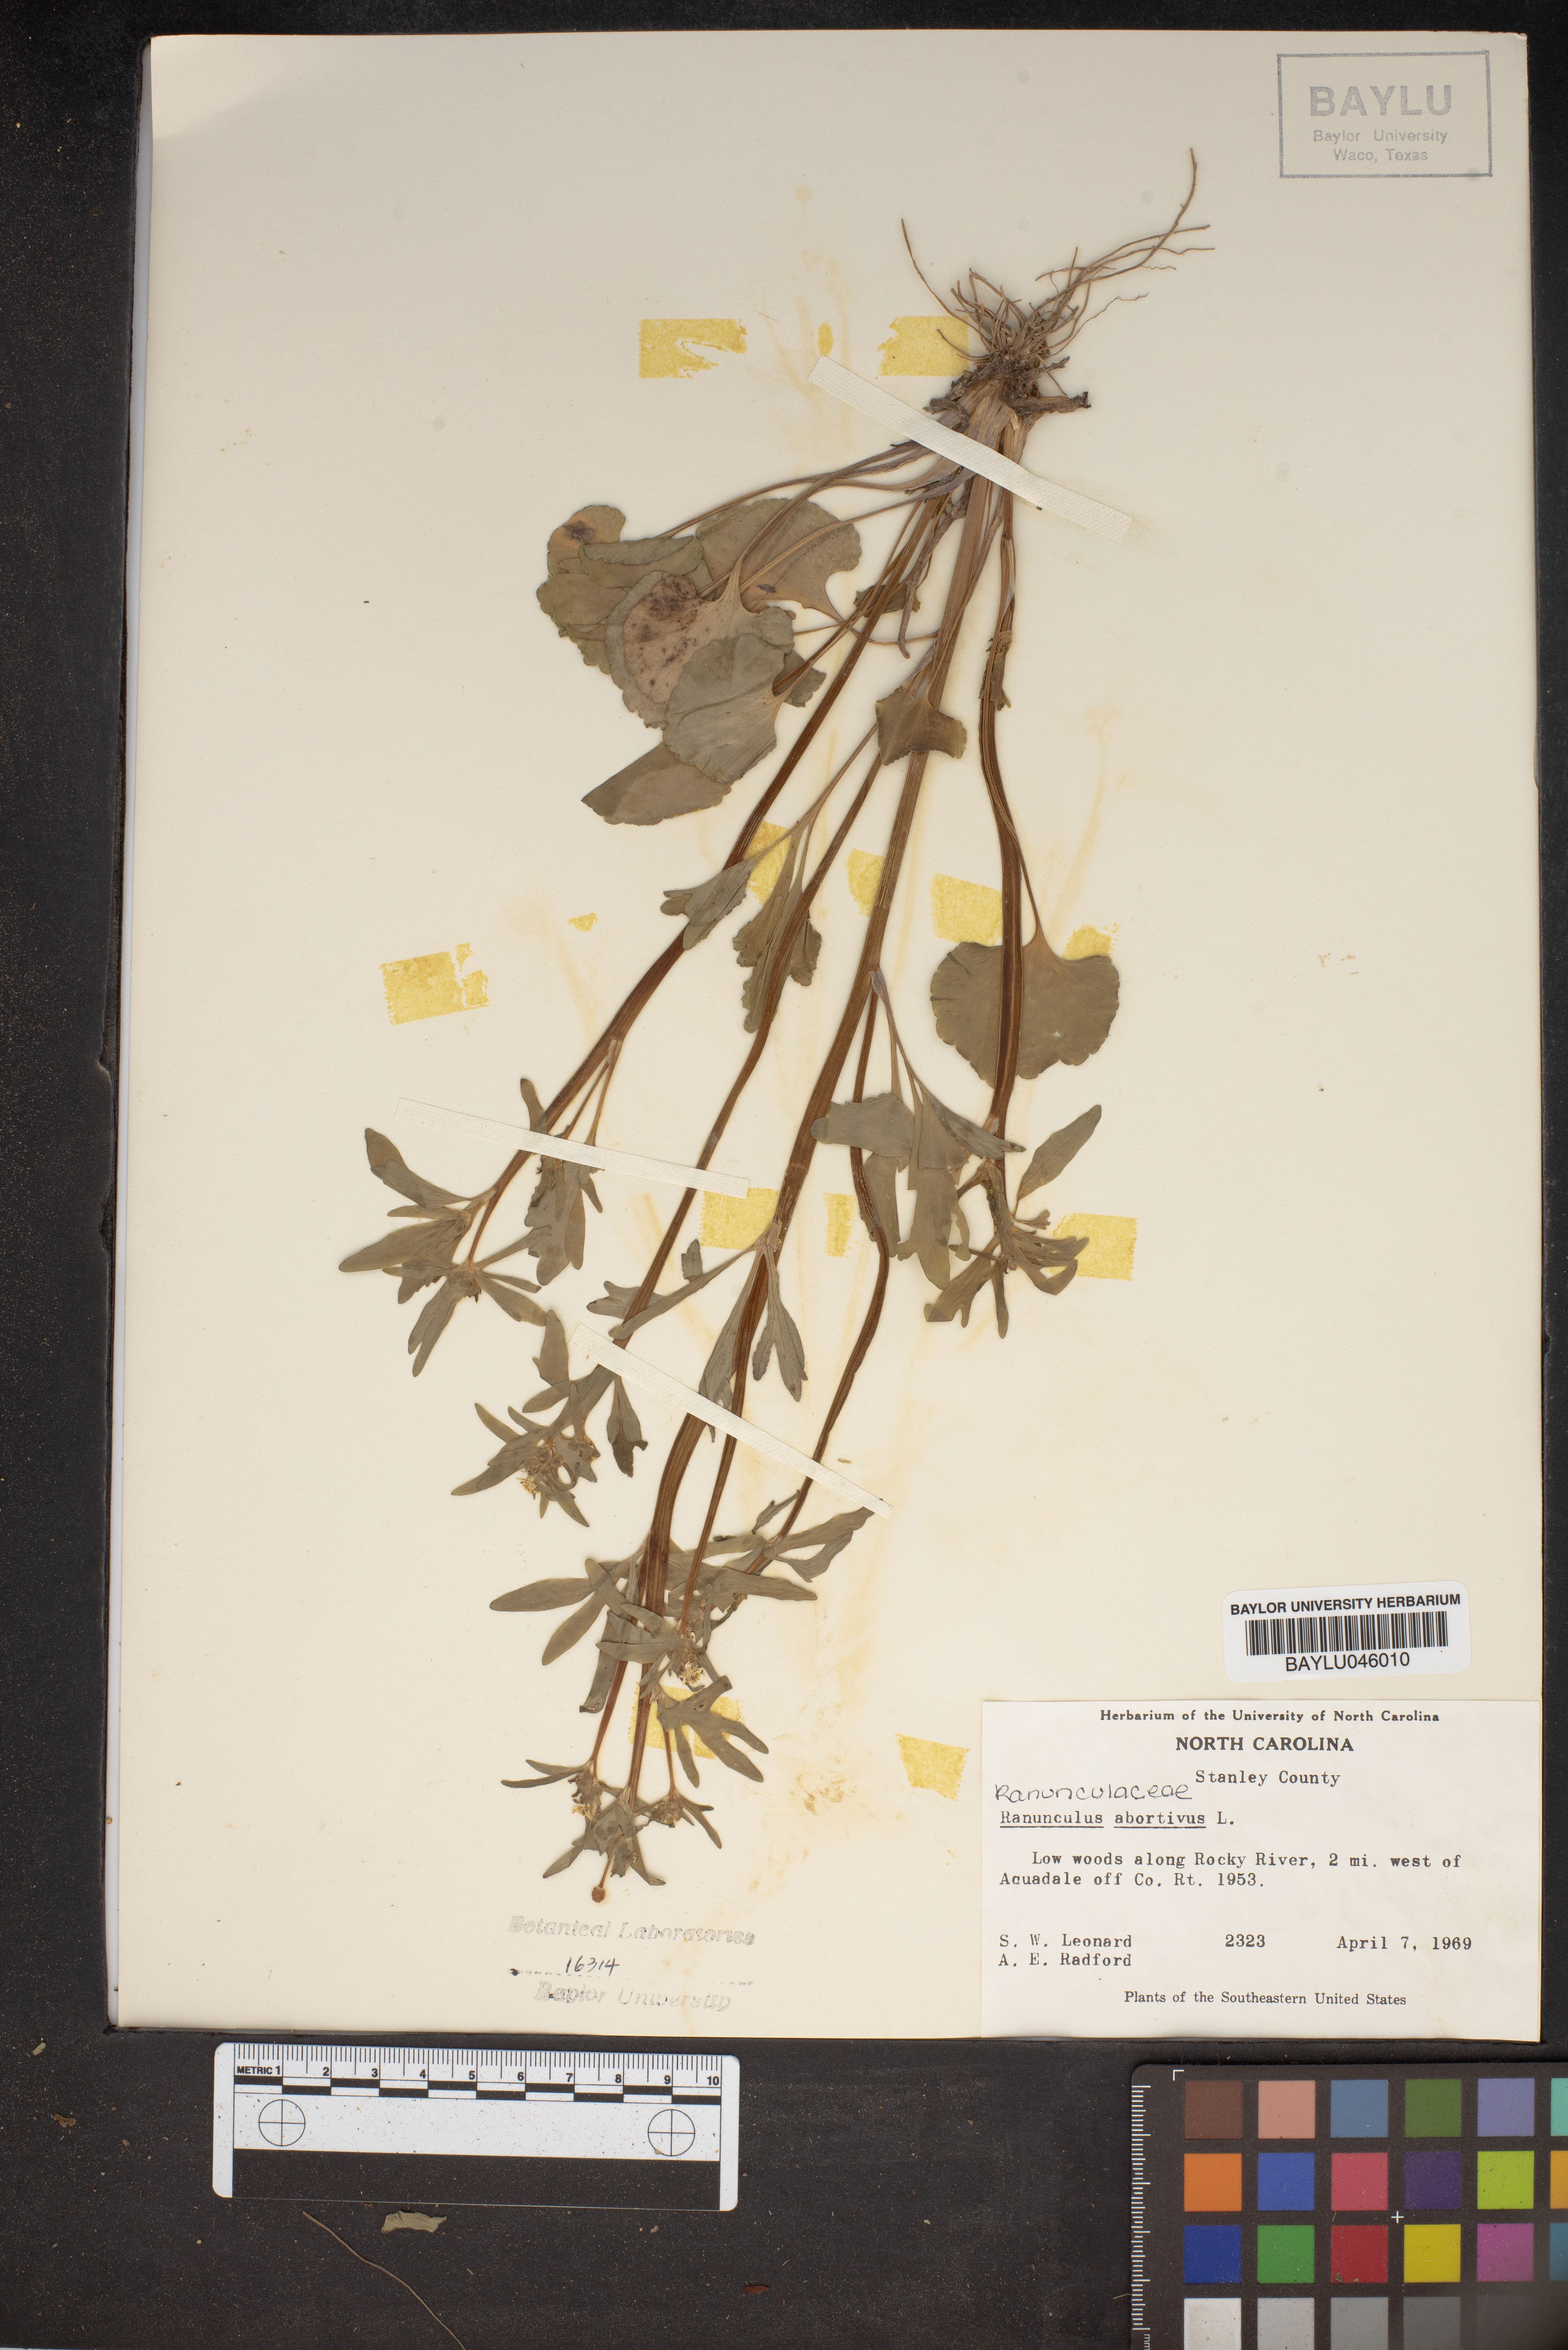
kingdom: Plantae
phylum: Tracheophyta
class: Magnoliopsida
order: Ranunculales
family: Ranunculaceae
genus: Ranunculus
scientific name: Ranunculus abortivus
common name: Early wood buttercup
